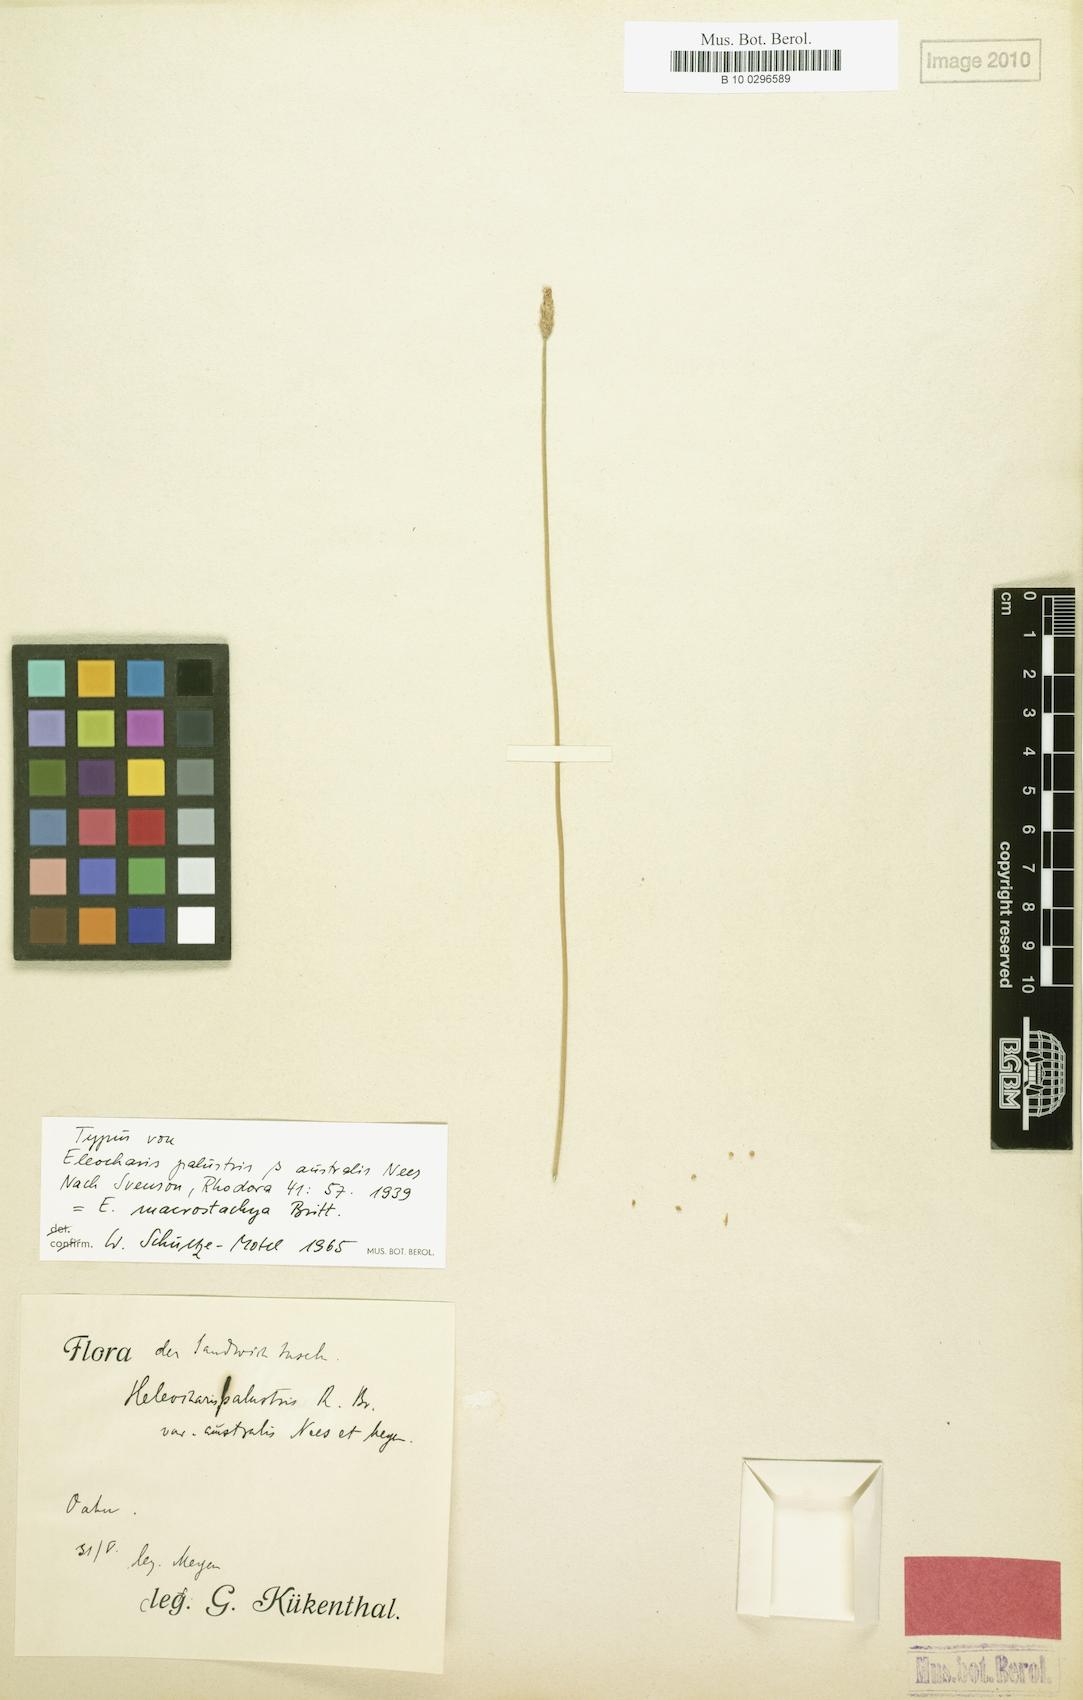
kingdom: Plantae
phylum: Tracheophyta
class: Liliopsida
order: Poales
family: Cyperaceae
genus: Eleocharis
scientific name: Eleocharis macrostachya
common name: Pale spikerush
